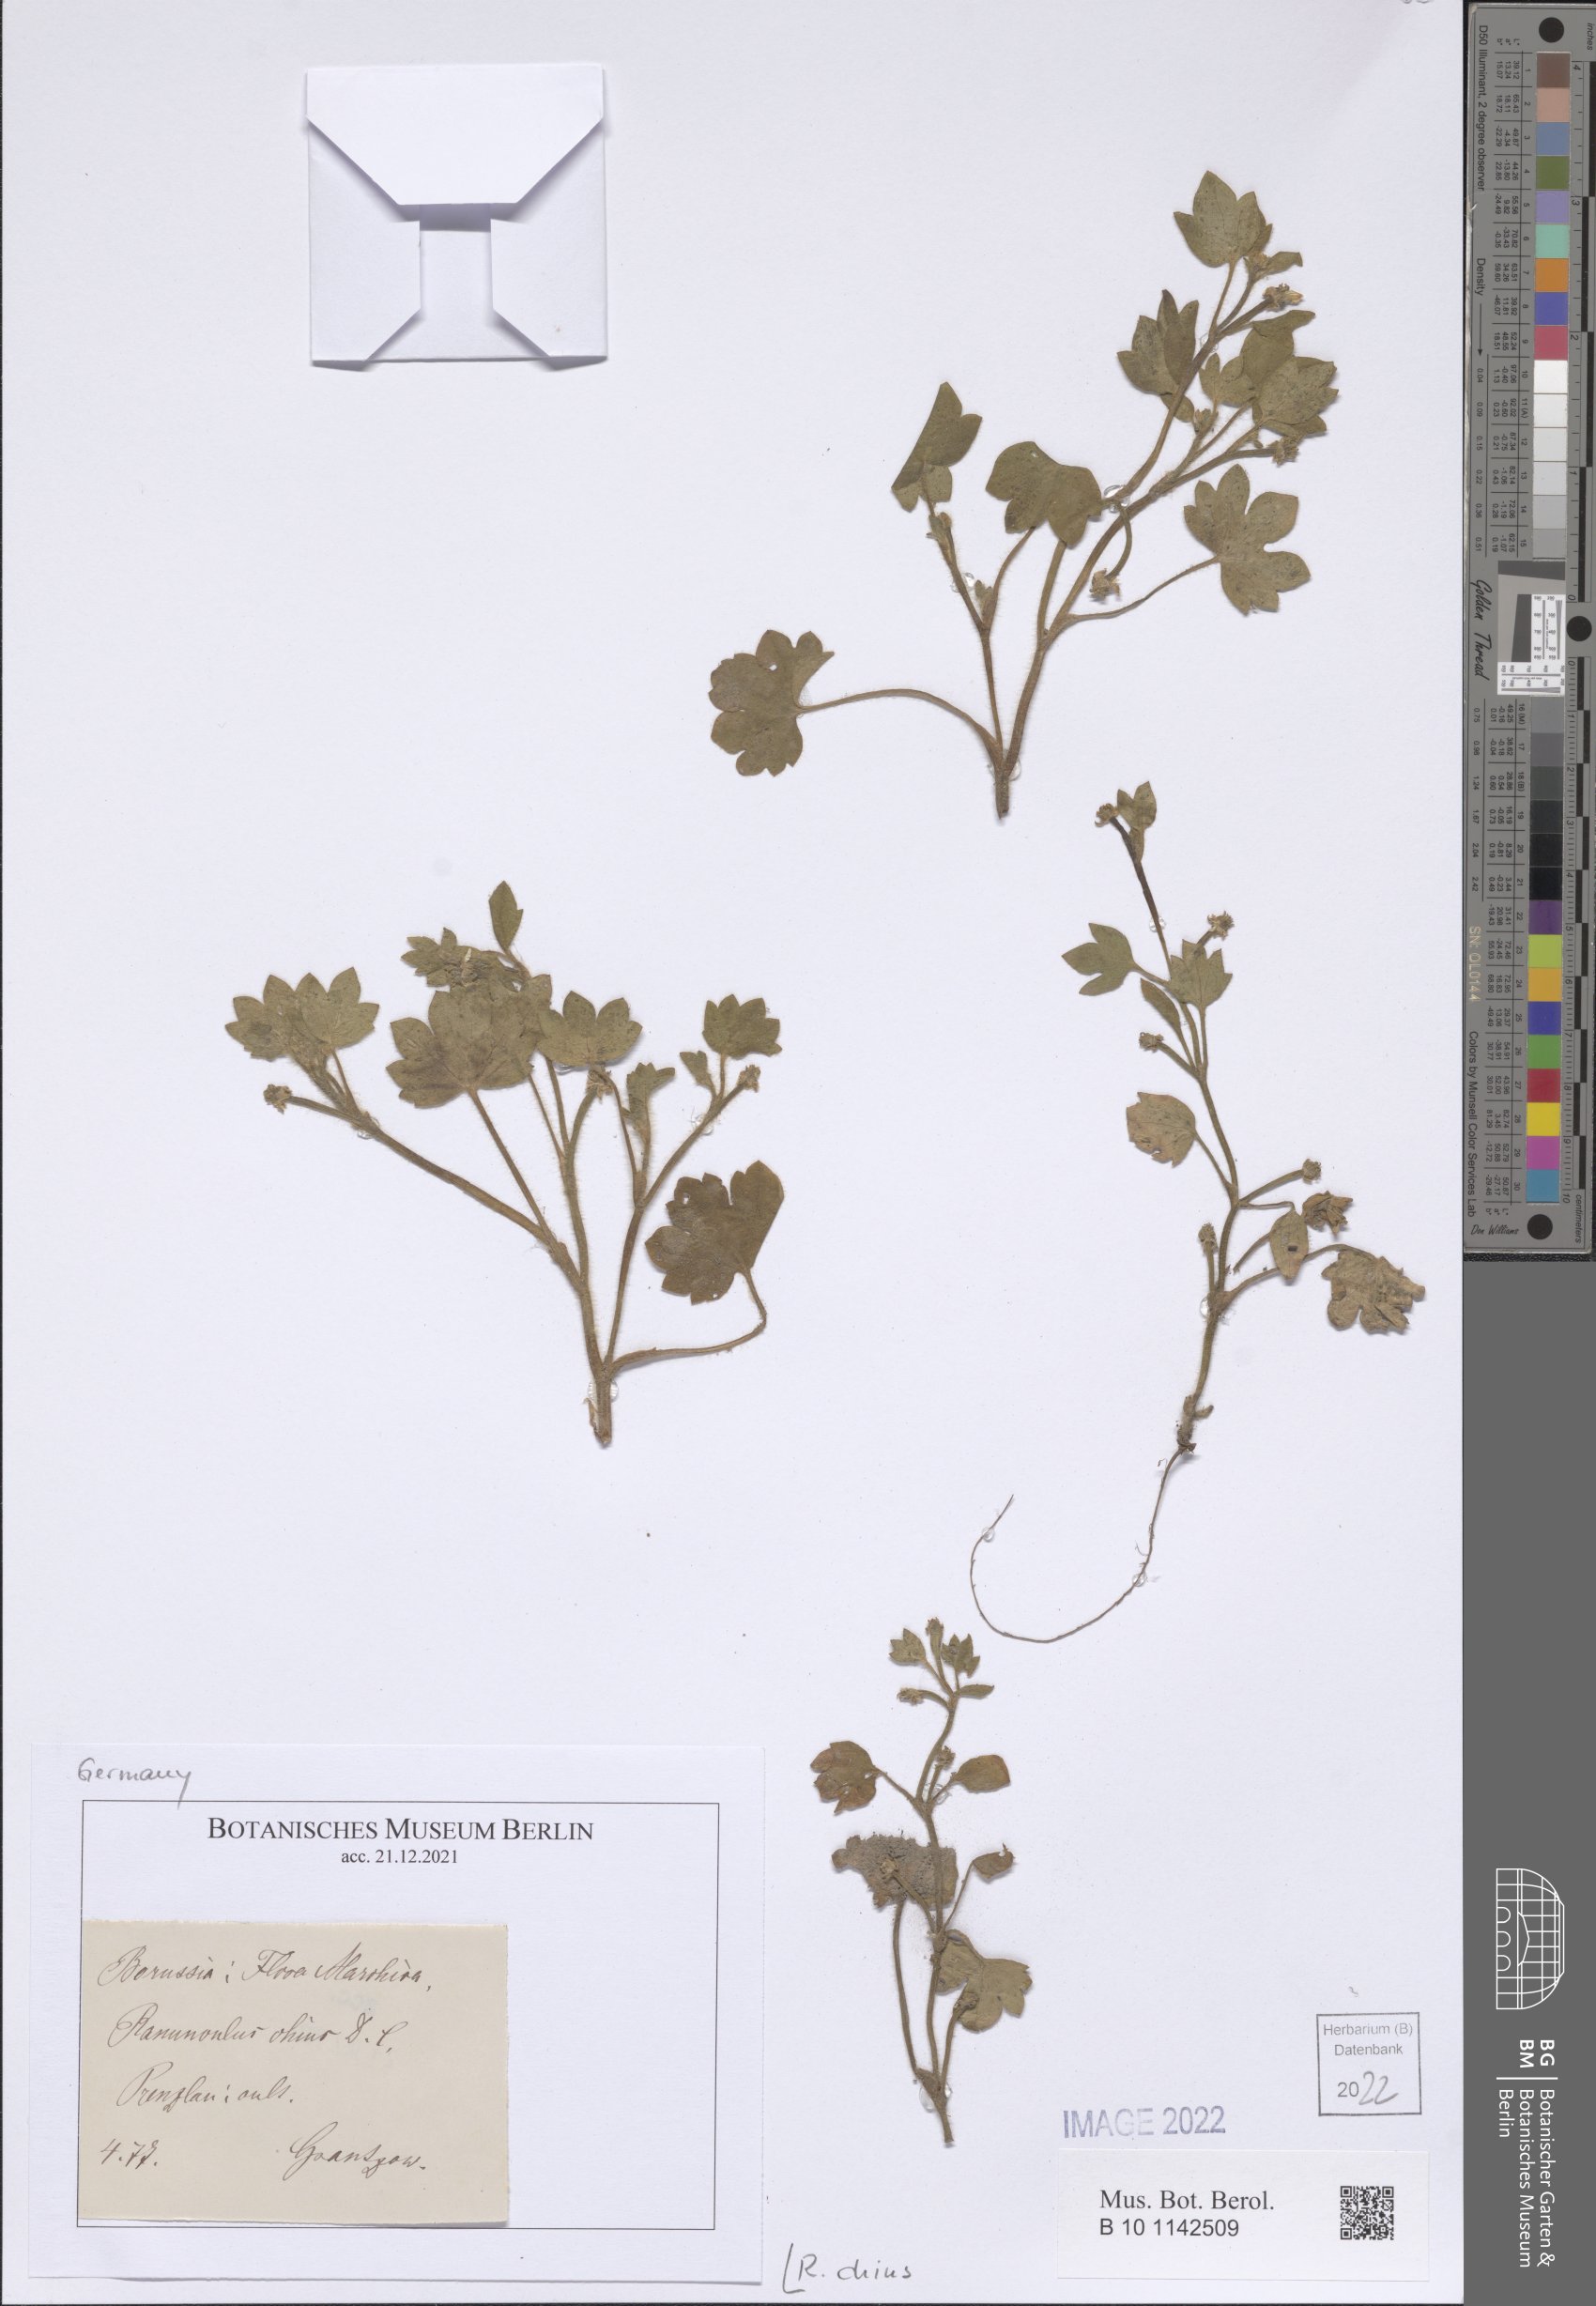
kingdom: Plantae
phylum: Tracheophyta
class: Magnoliopsida
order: Ranunculales
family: Ranunculaceae
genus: Ranunculus
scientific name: Ranunculus chius
